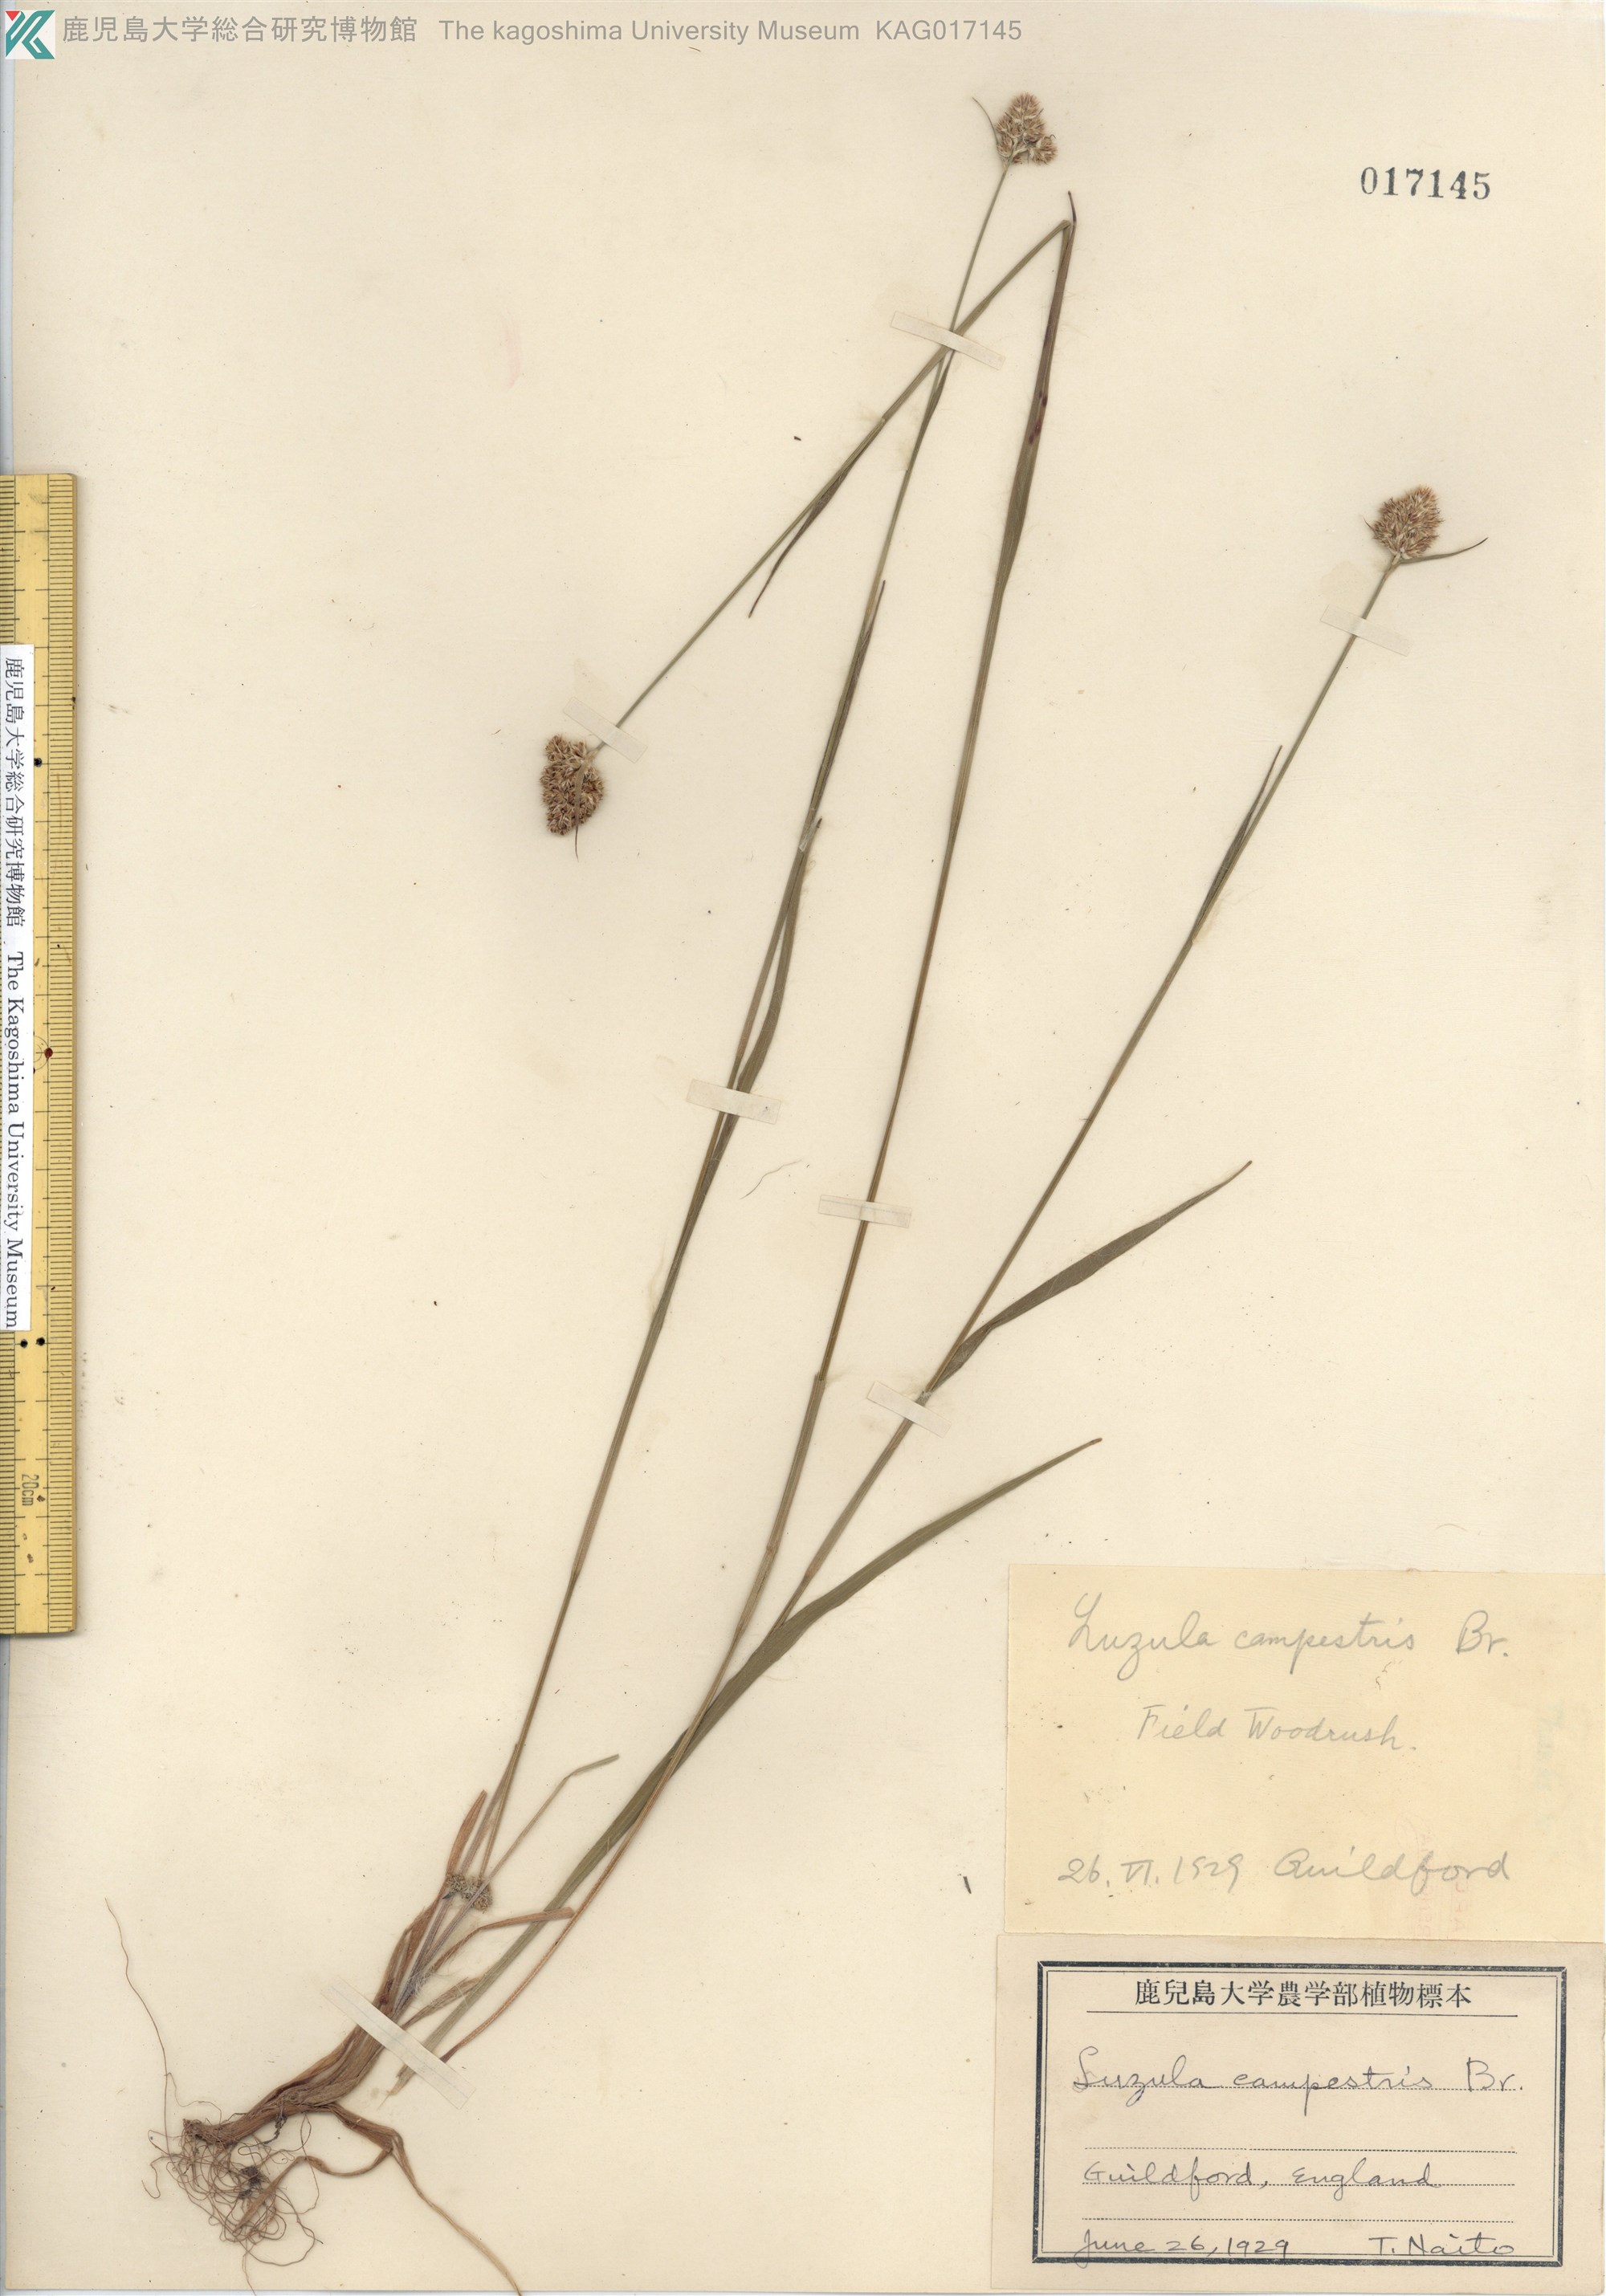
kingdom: Plantae
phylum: Tracheophyta
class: Liliopsida
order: Poales
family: Juncaceae
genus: Luzula
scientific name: Luzula campestris
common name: Field wood-rush
